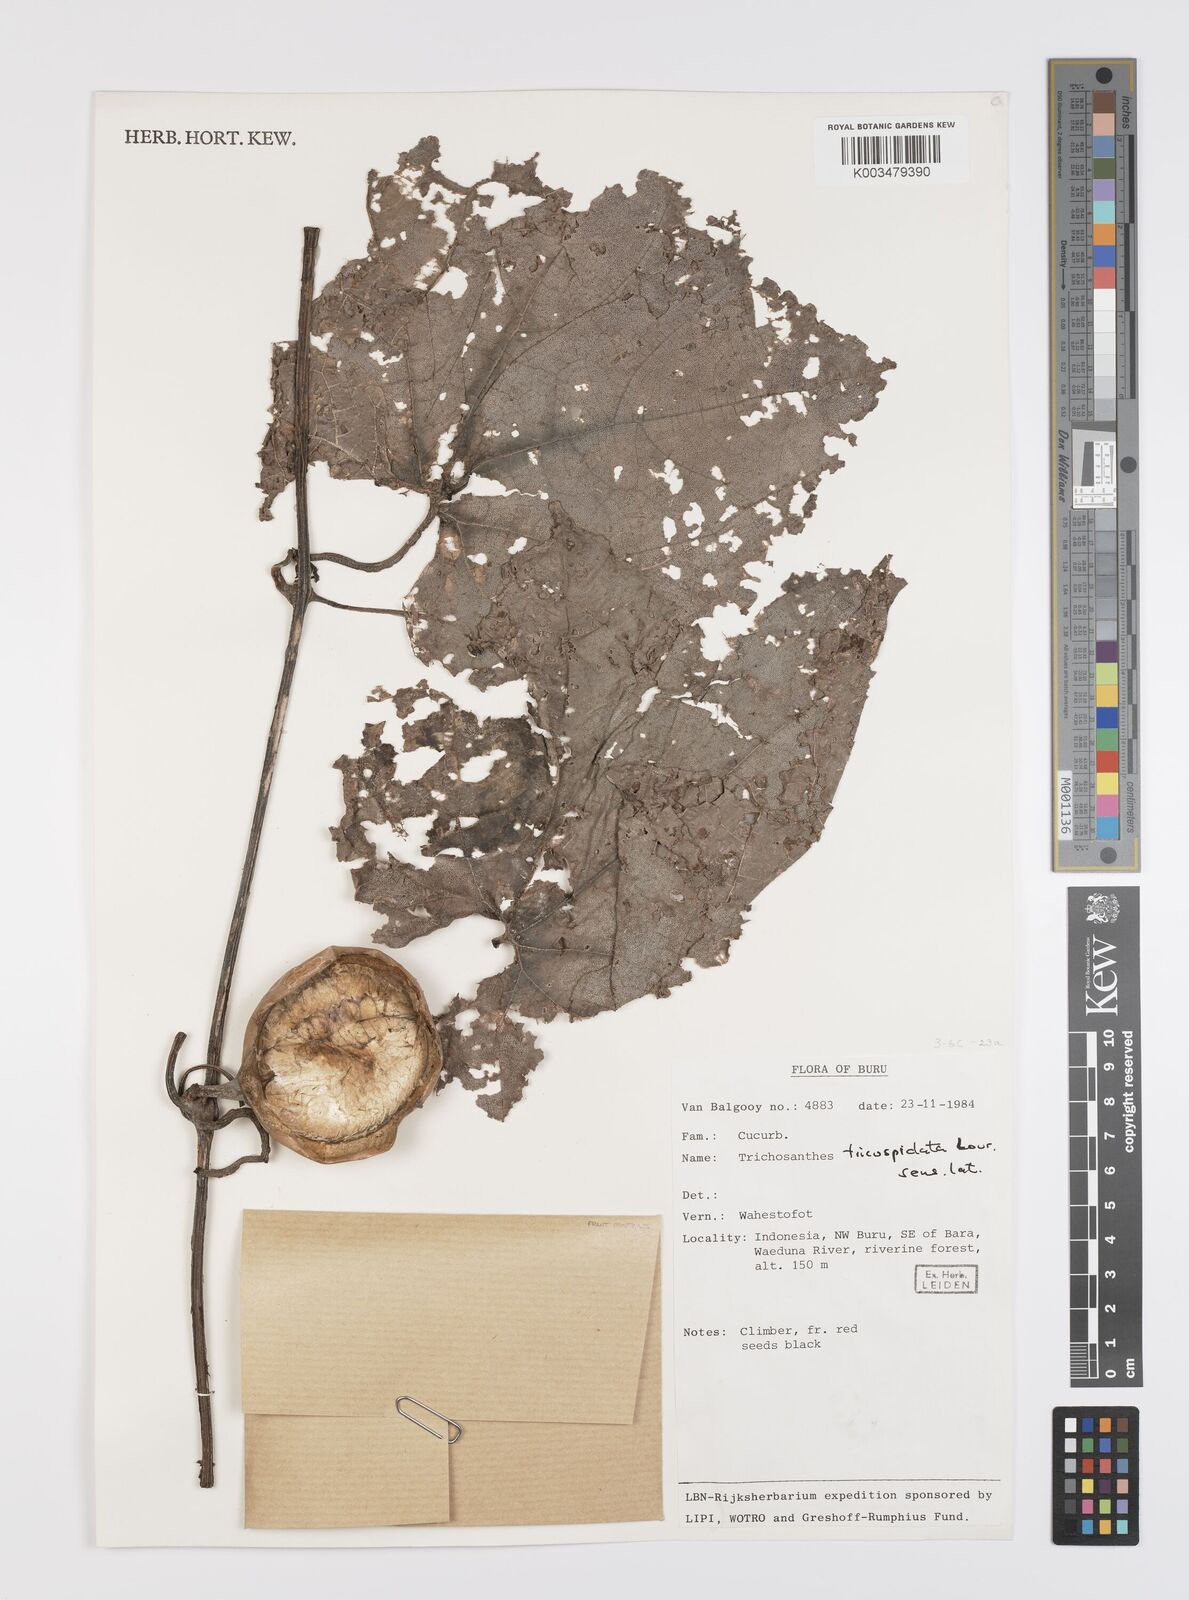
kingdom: Plantae
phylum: Tracheophyta
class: Magnoliopsida
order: Cucurbitales
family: Cucurbitaceae
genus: Trichosanthes
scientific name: Trichosanthes tricuspidata
